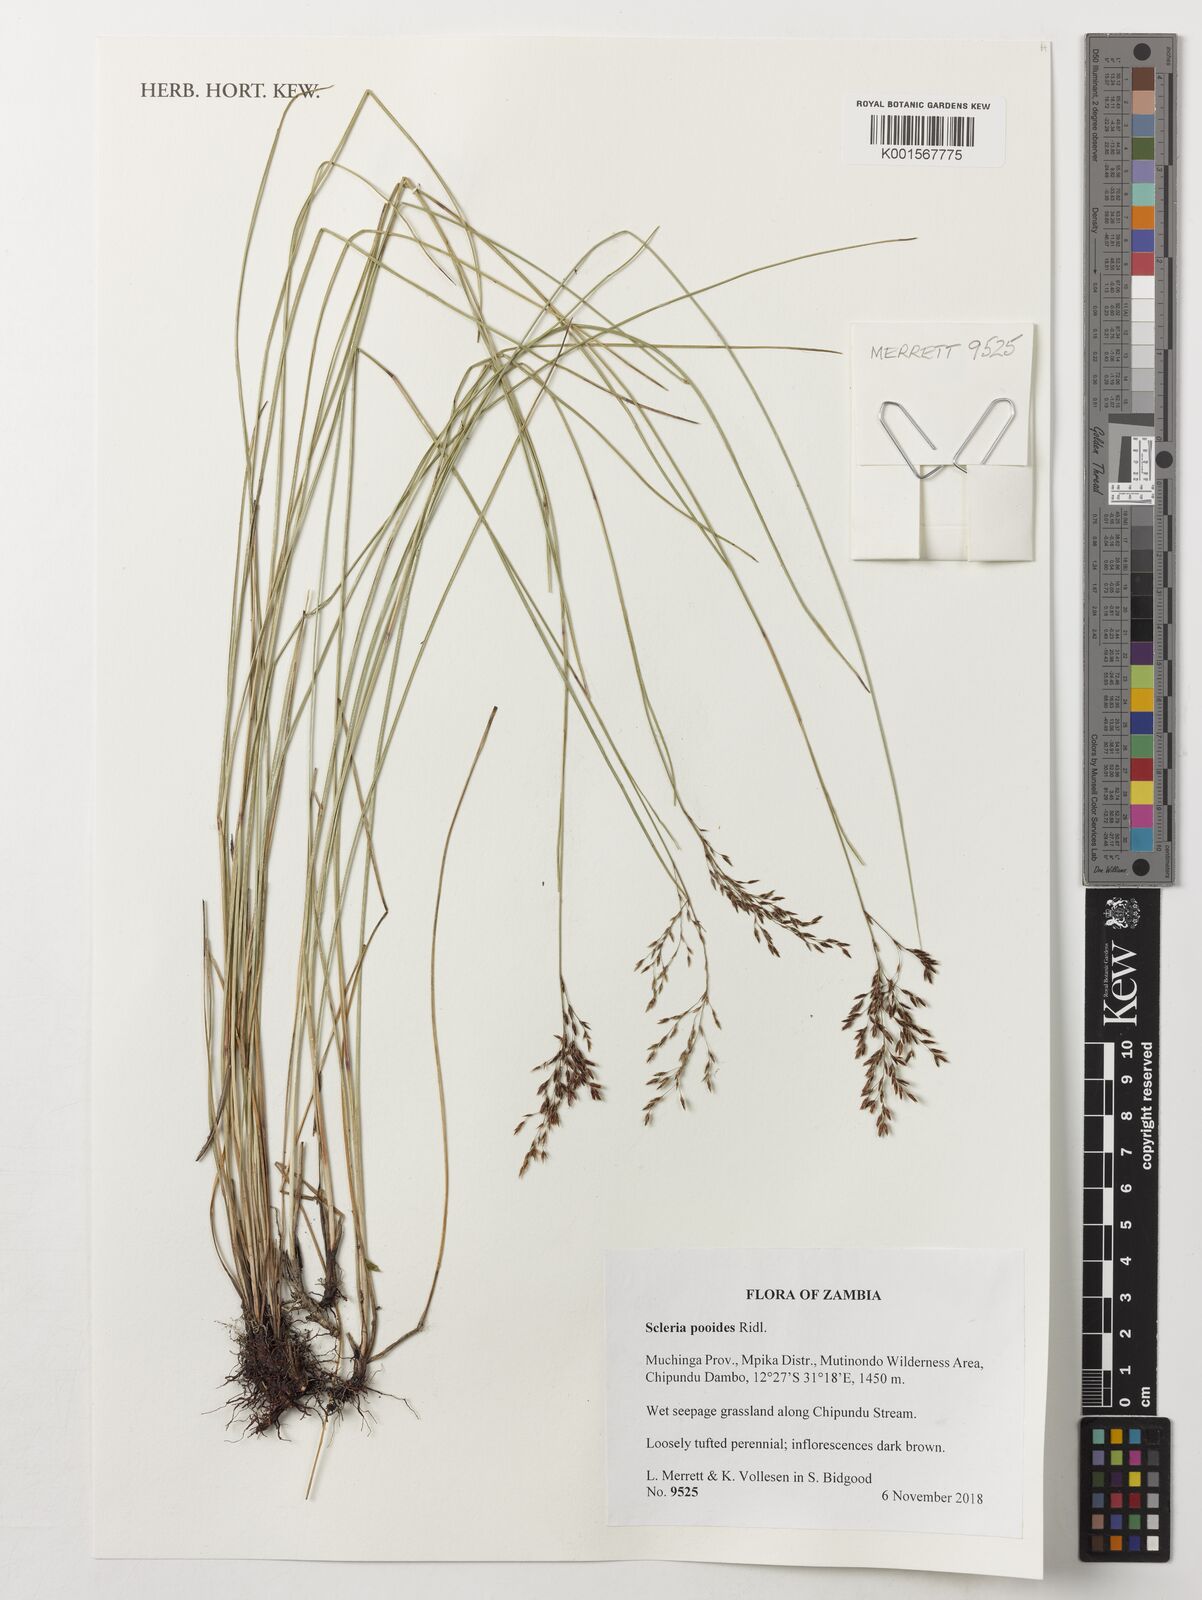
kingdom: Plantae
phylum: Tracheophyta
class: Liliopsida
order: Poales
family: Cyperaceae
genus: Scleria
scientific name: Scleria pooides
